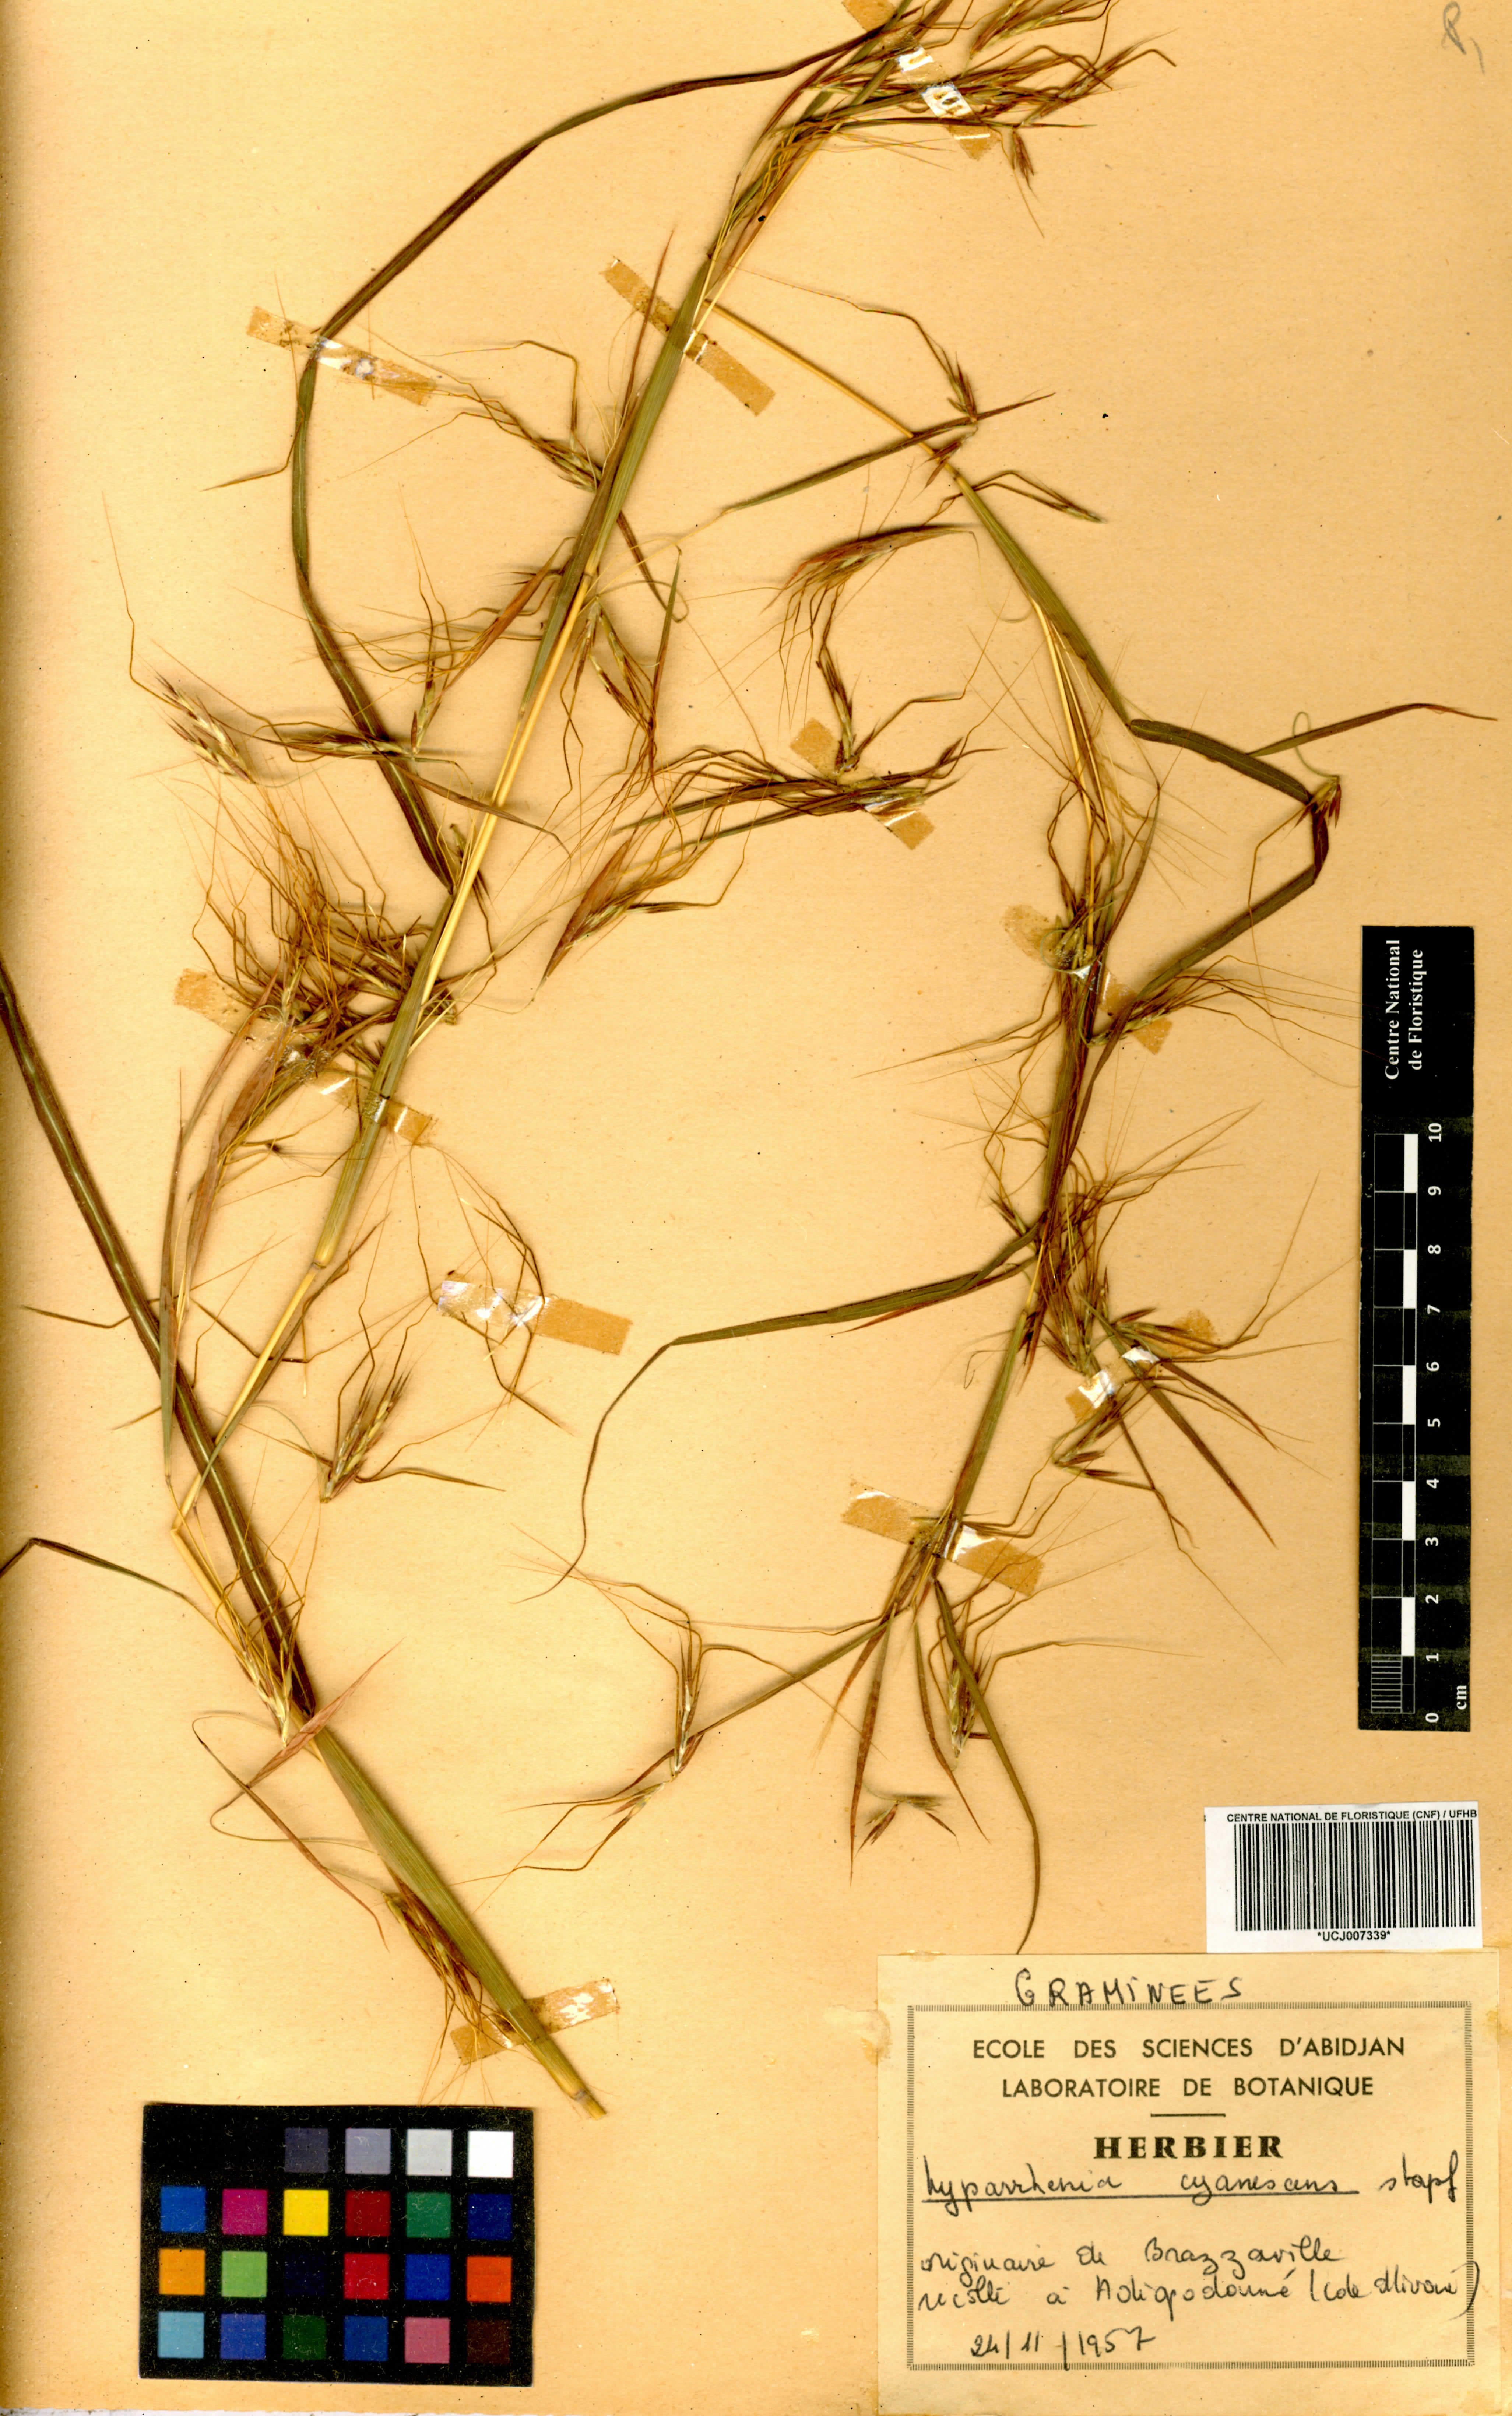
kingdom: Plantae
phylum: Tracheophyta
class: Liliopsida
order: Poales
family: Poaceae
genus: Hyparrhenia
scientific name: Hyparrhenia cyanescens
